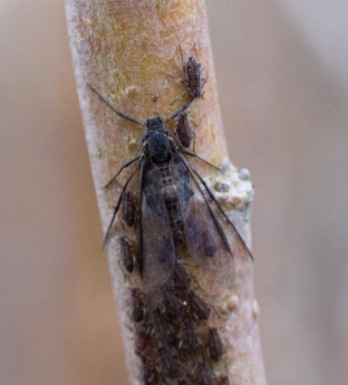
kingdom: Animalia
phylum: Arthropoda
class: Insecta
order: Hemiptera
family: Aphididae
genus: Tuberolachnus
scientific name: Tuberolachnus salignus
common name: Pilegrenbladlus
